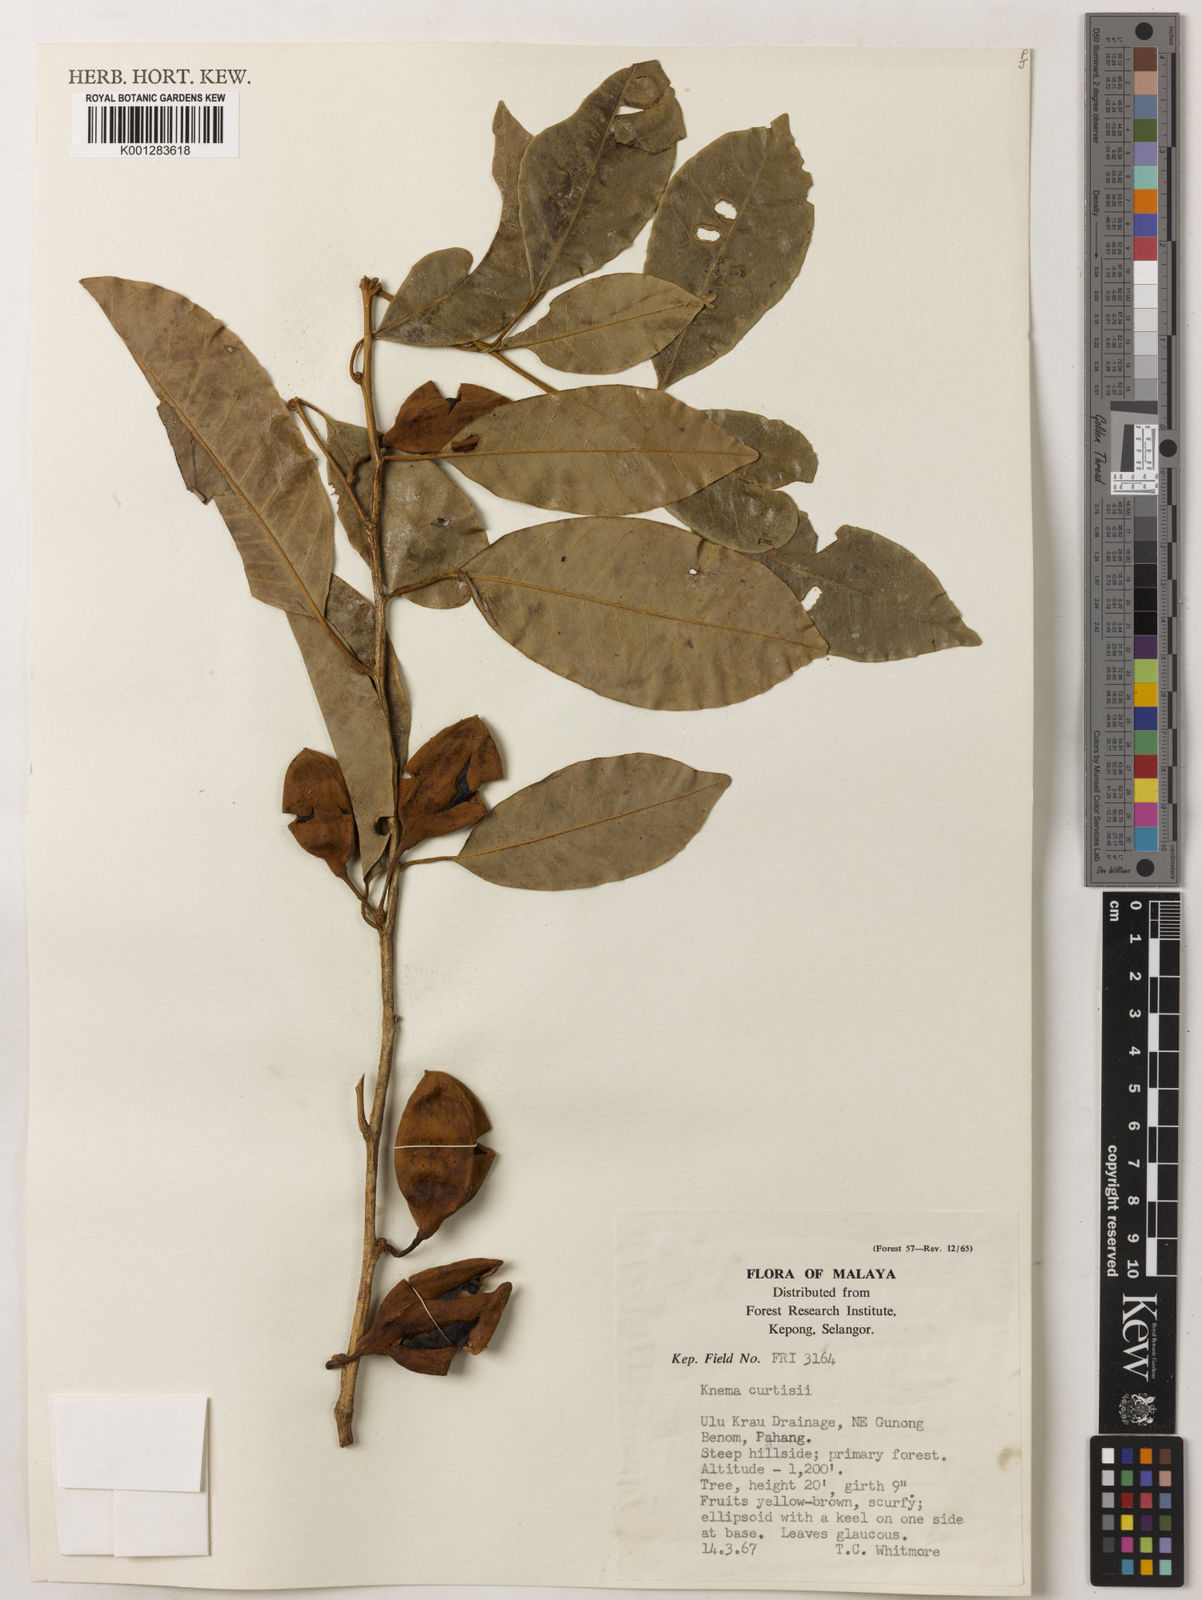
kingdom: Plantae
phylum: Tracheophyta
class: Magnoliopsida
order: Magnoliales
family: Myristicaceae
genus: Knema
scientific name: Knema curtisii
